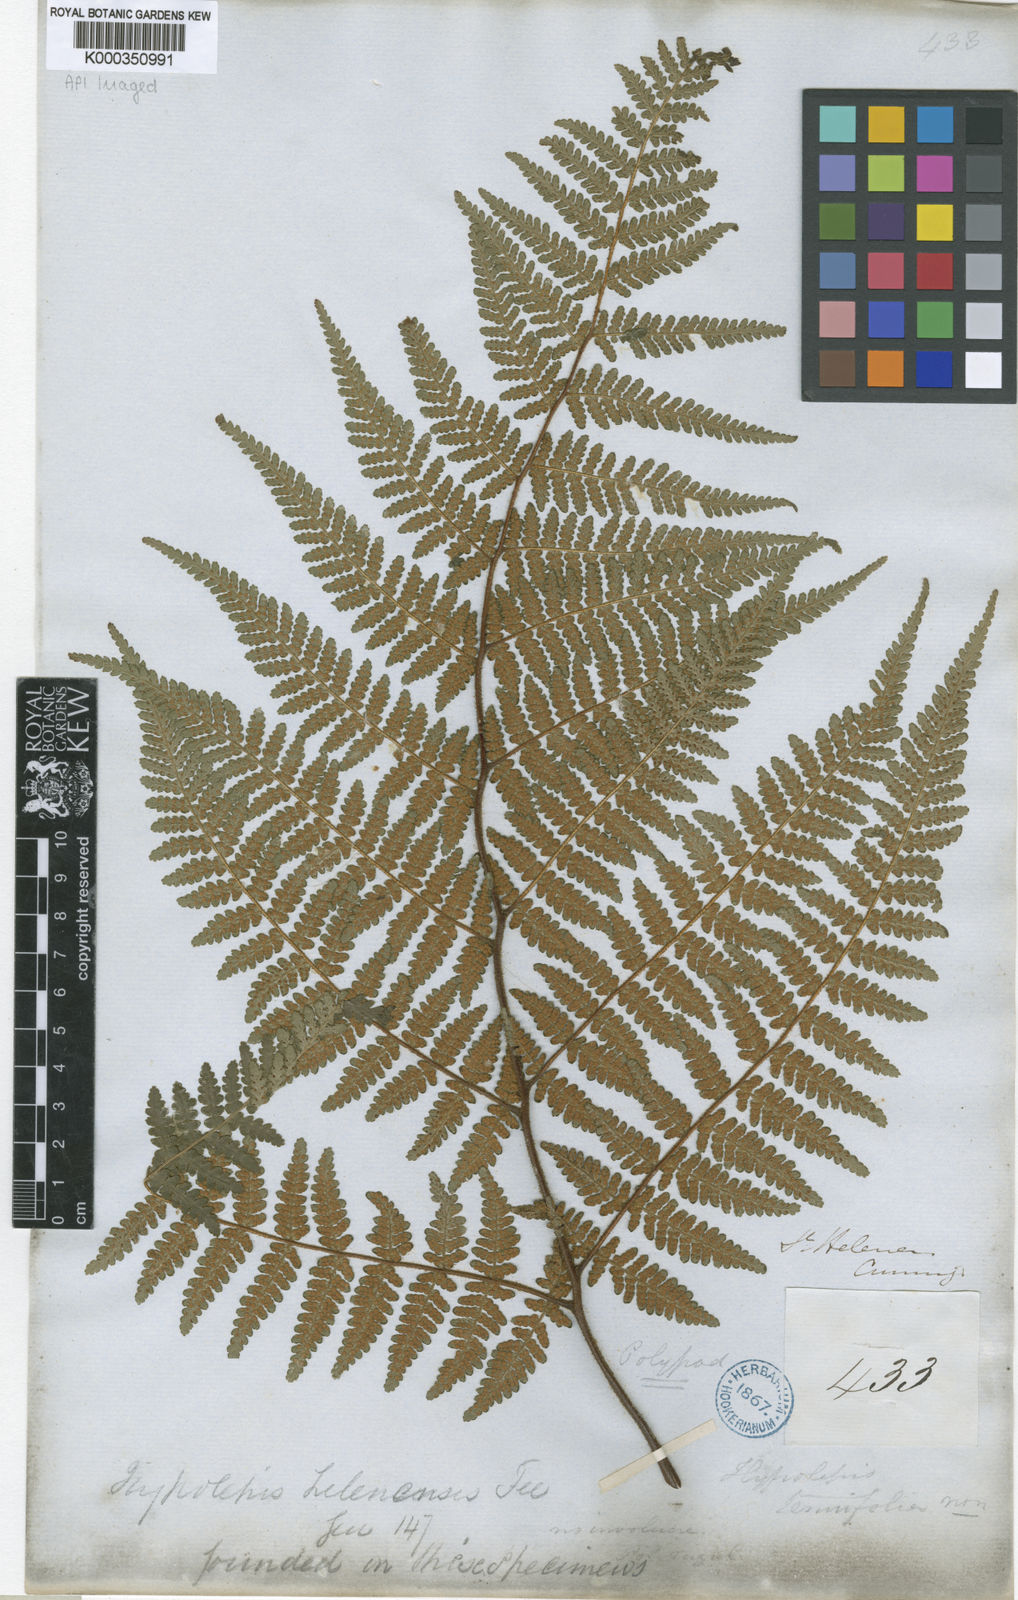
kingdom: Plantae
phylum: Tracheophyta
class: Polypodiopsida
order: Polypodiales
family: Dennstaedtiaceae
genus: Hypolepis
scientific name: Hypolepis
